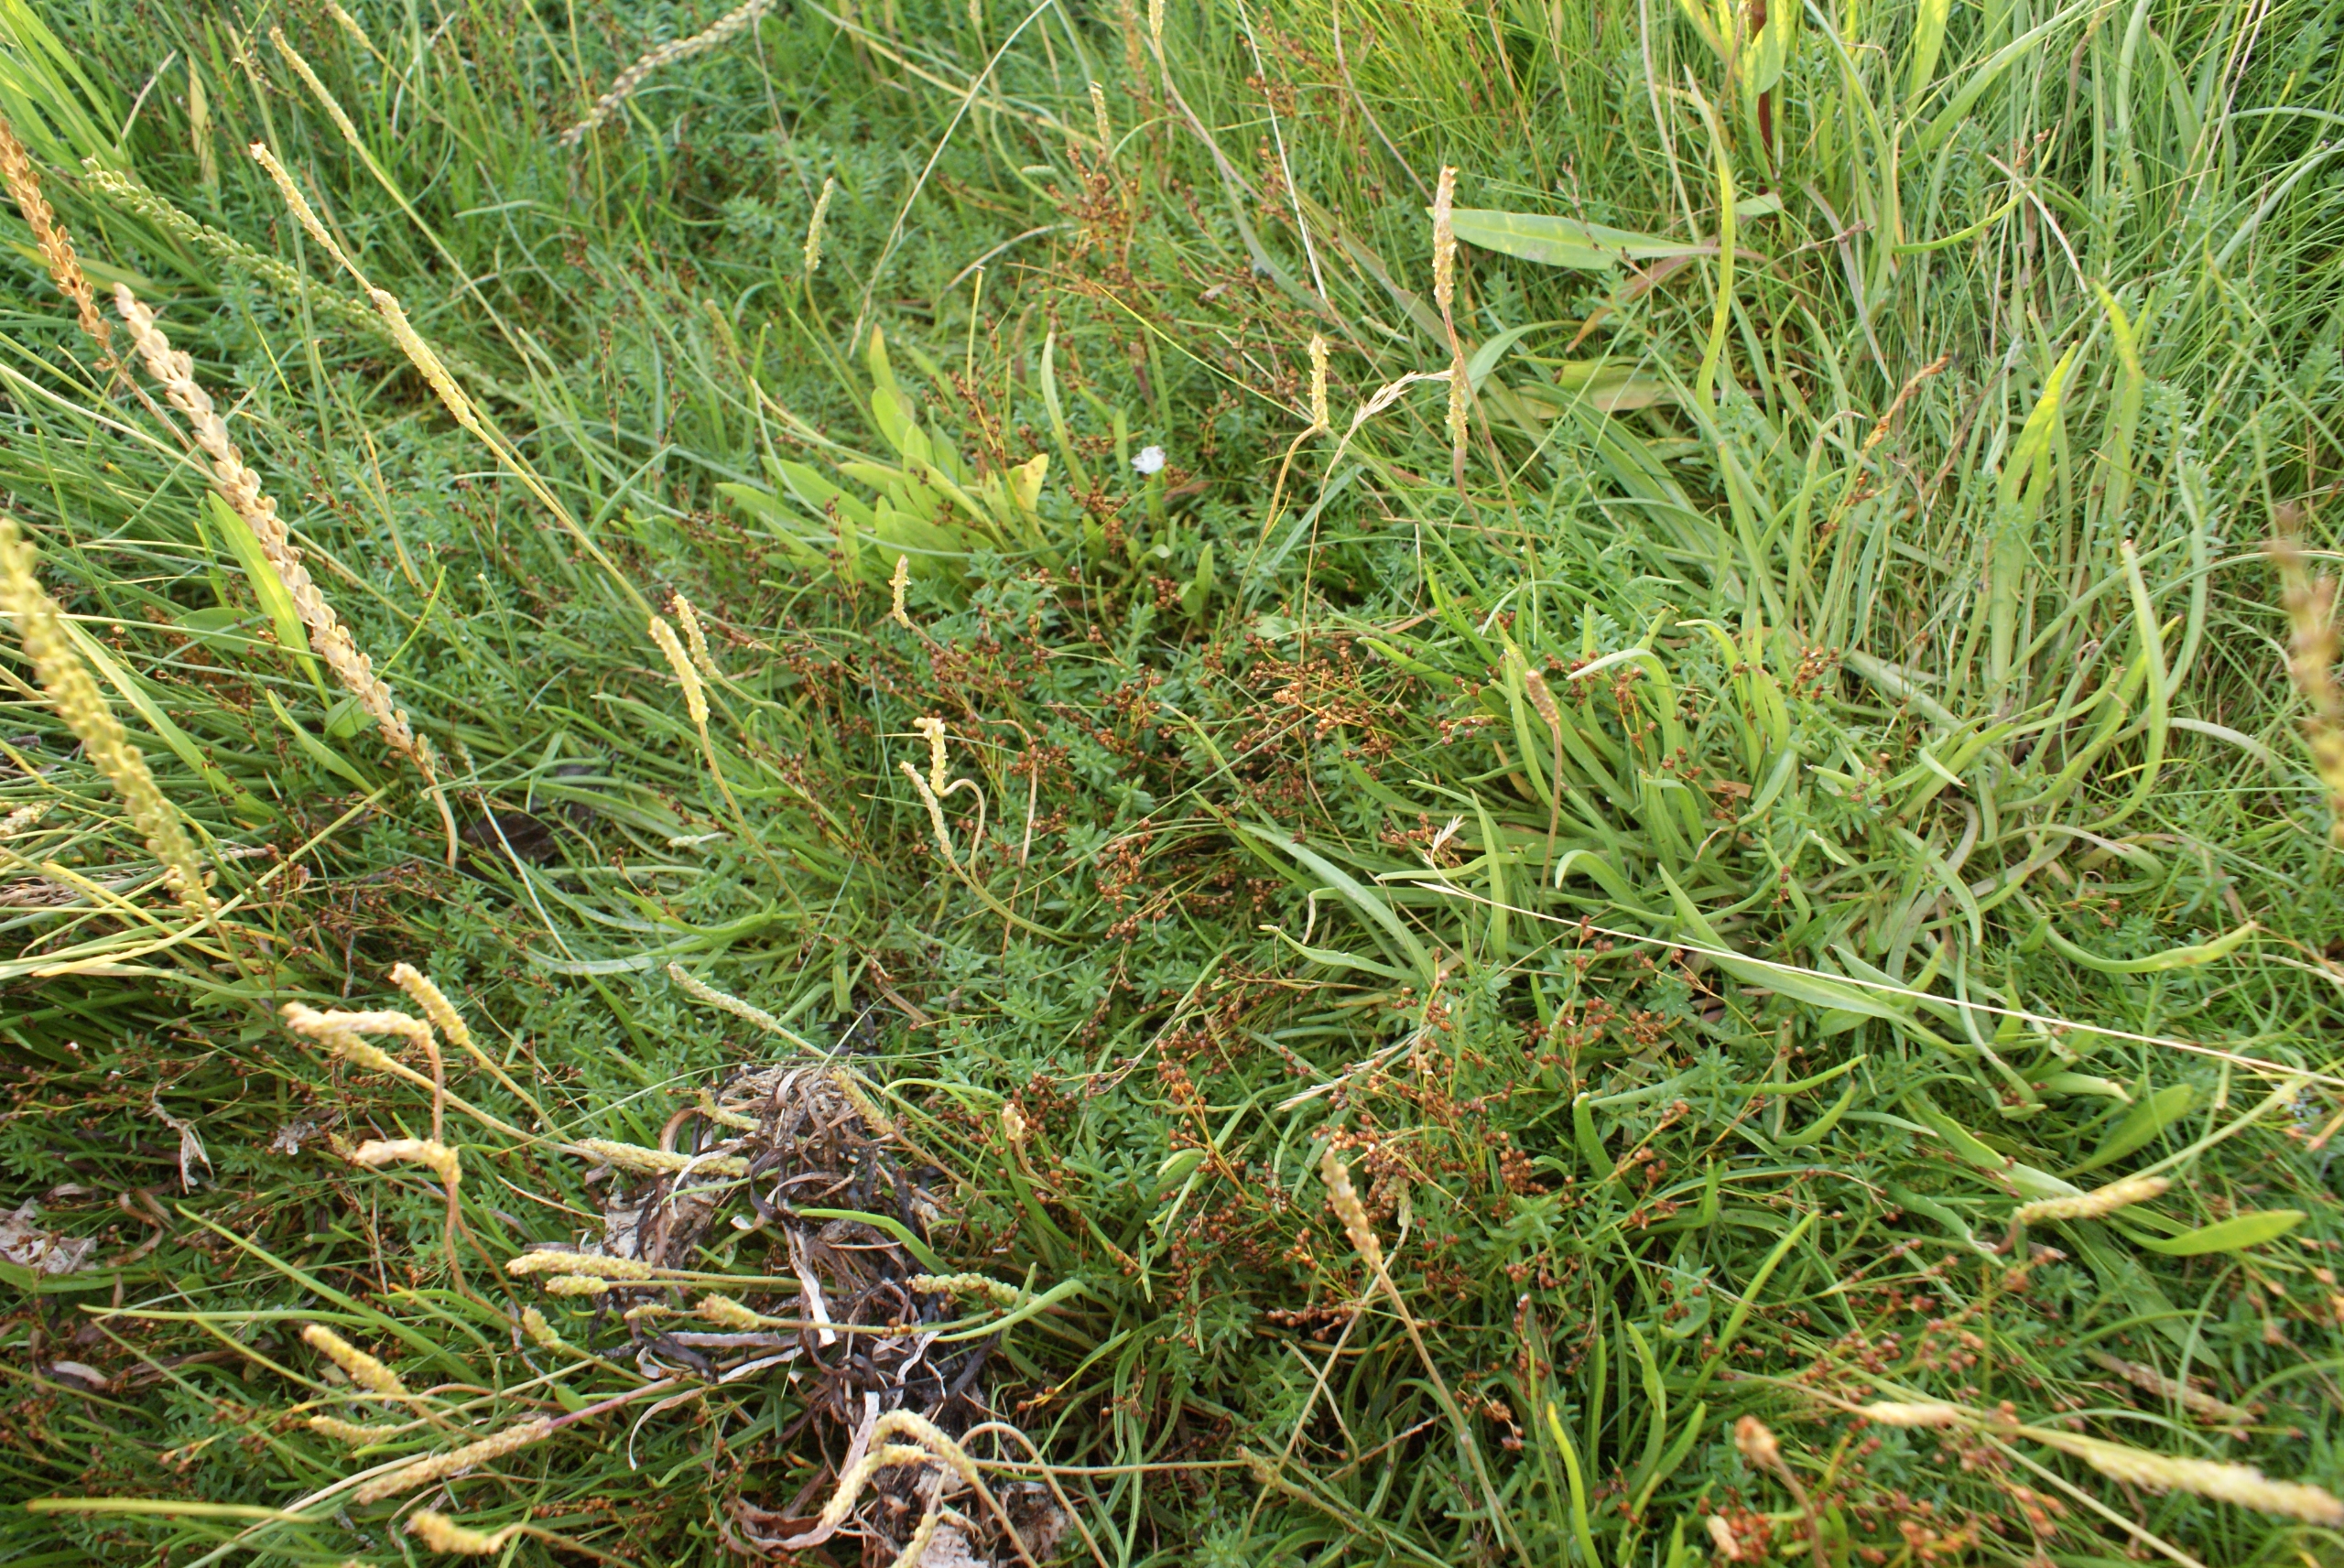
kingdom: Plantae
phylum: Tracheophyta
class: Liliopsida
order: Poales
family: Juncaceae
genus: Juncus
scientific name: Juncus gerardi
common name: Harril
